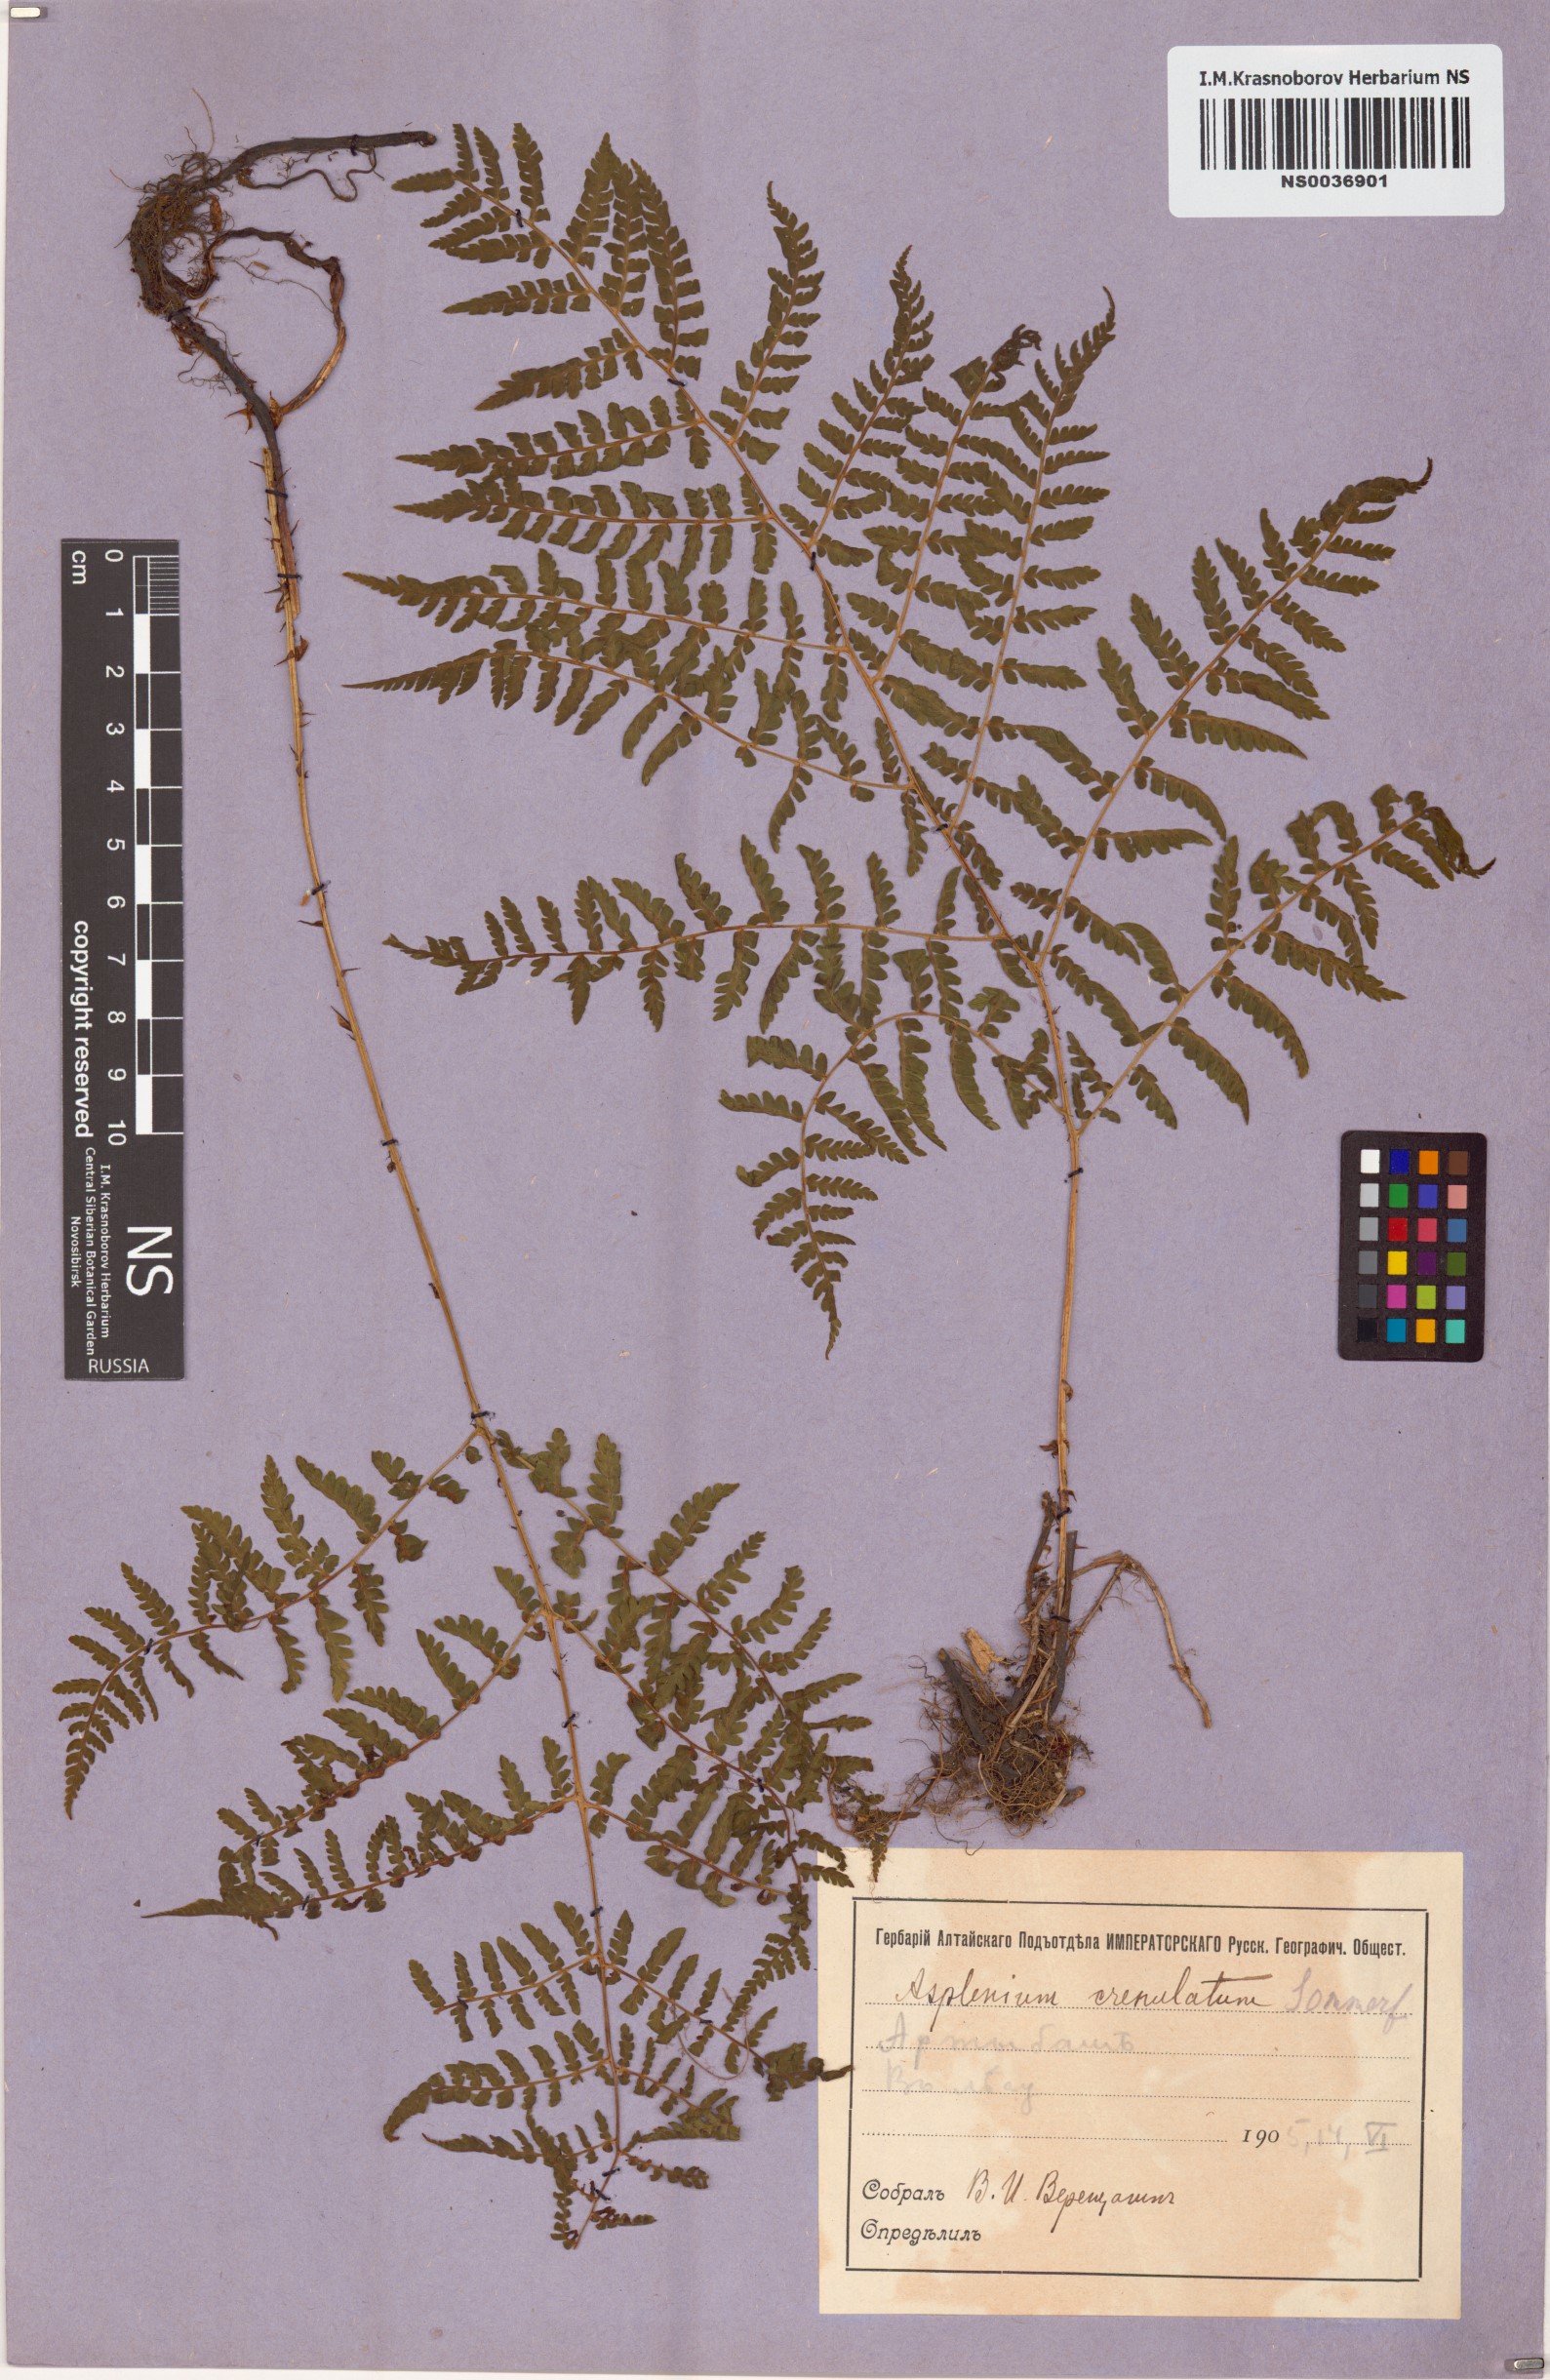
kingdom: Plantae
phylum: Tracheophyta
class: Polypodiopsida
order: Polypodiales
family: Athyriaceae
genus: Diplazium
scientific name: Diplazium sibiricum
